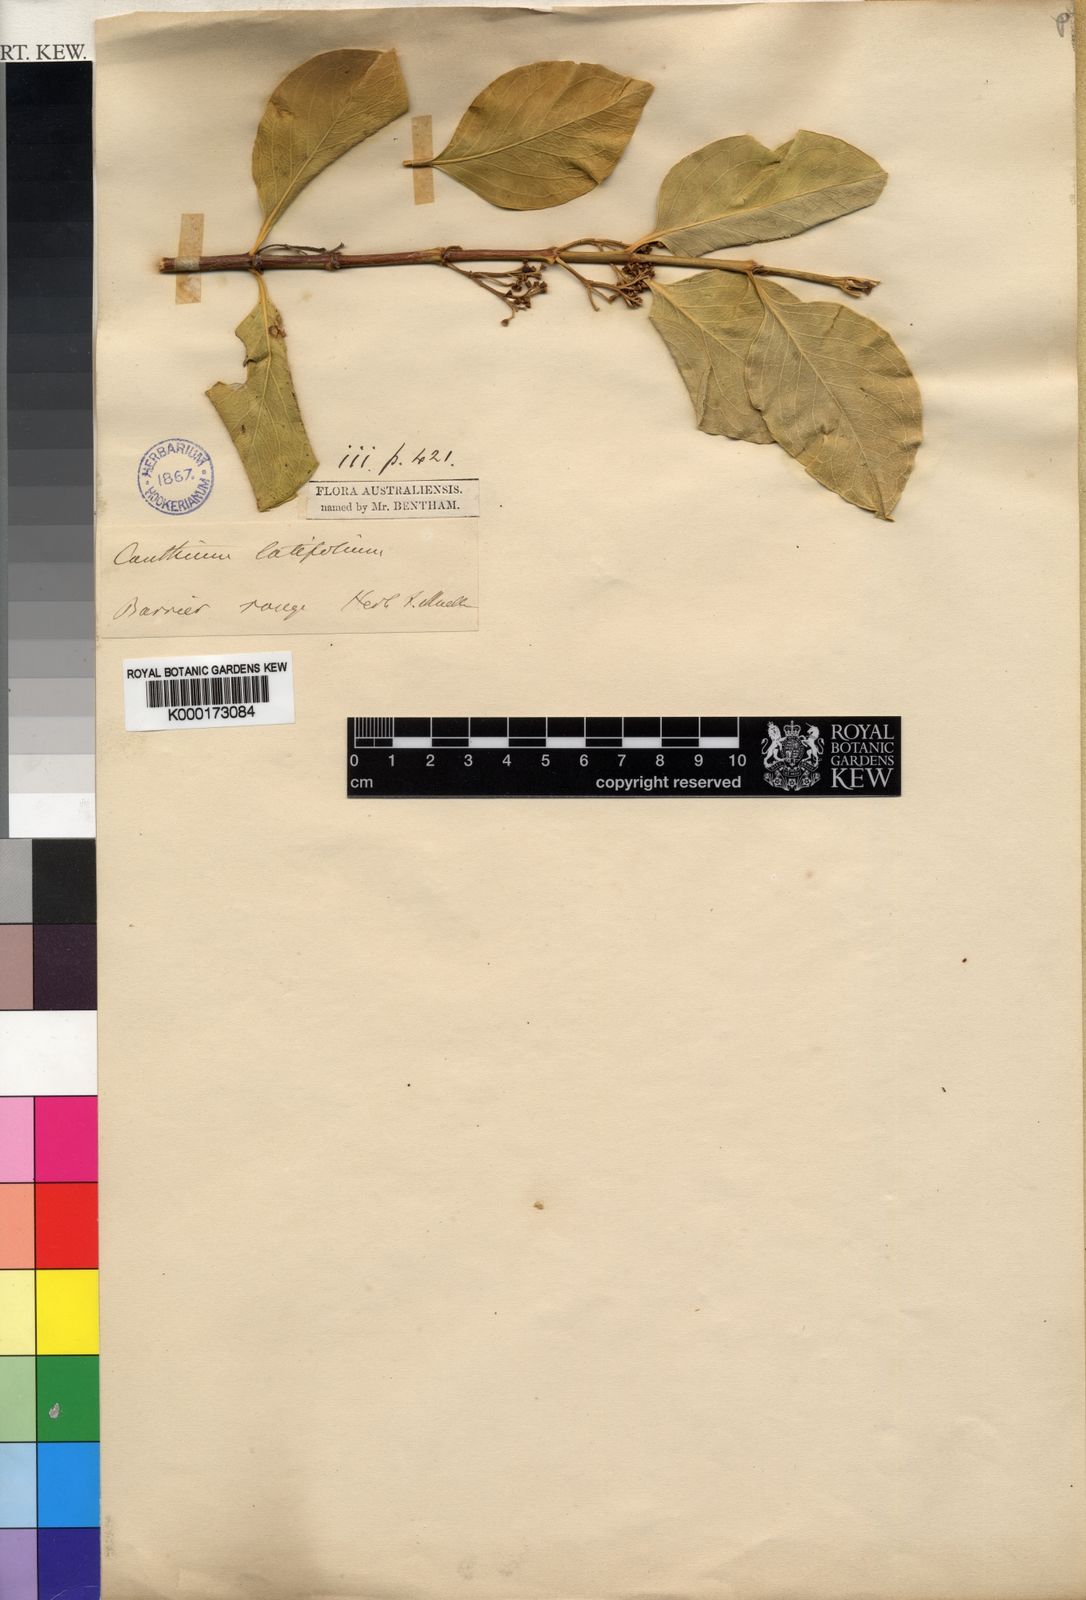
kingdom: Plantae
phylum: Tracheophyta
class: Magnoliopsida
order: Gentianales
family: Rubiaceae
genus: Psydrax
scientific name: Psydrax latifolius
